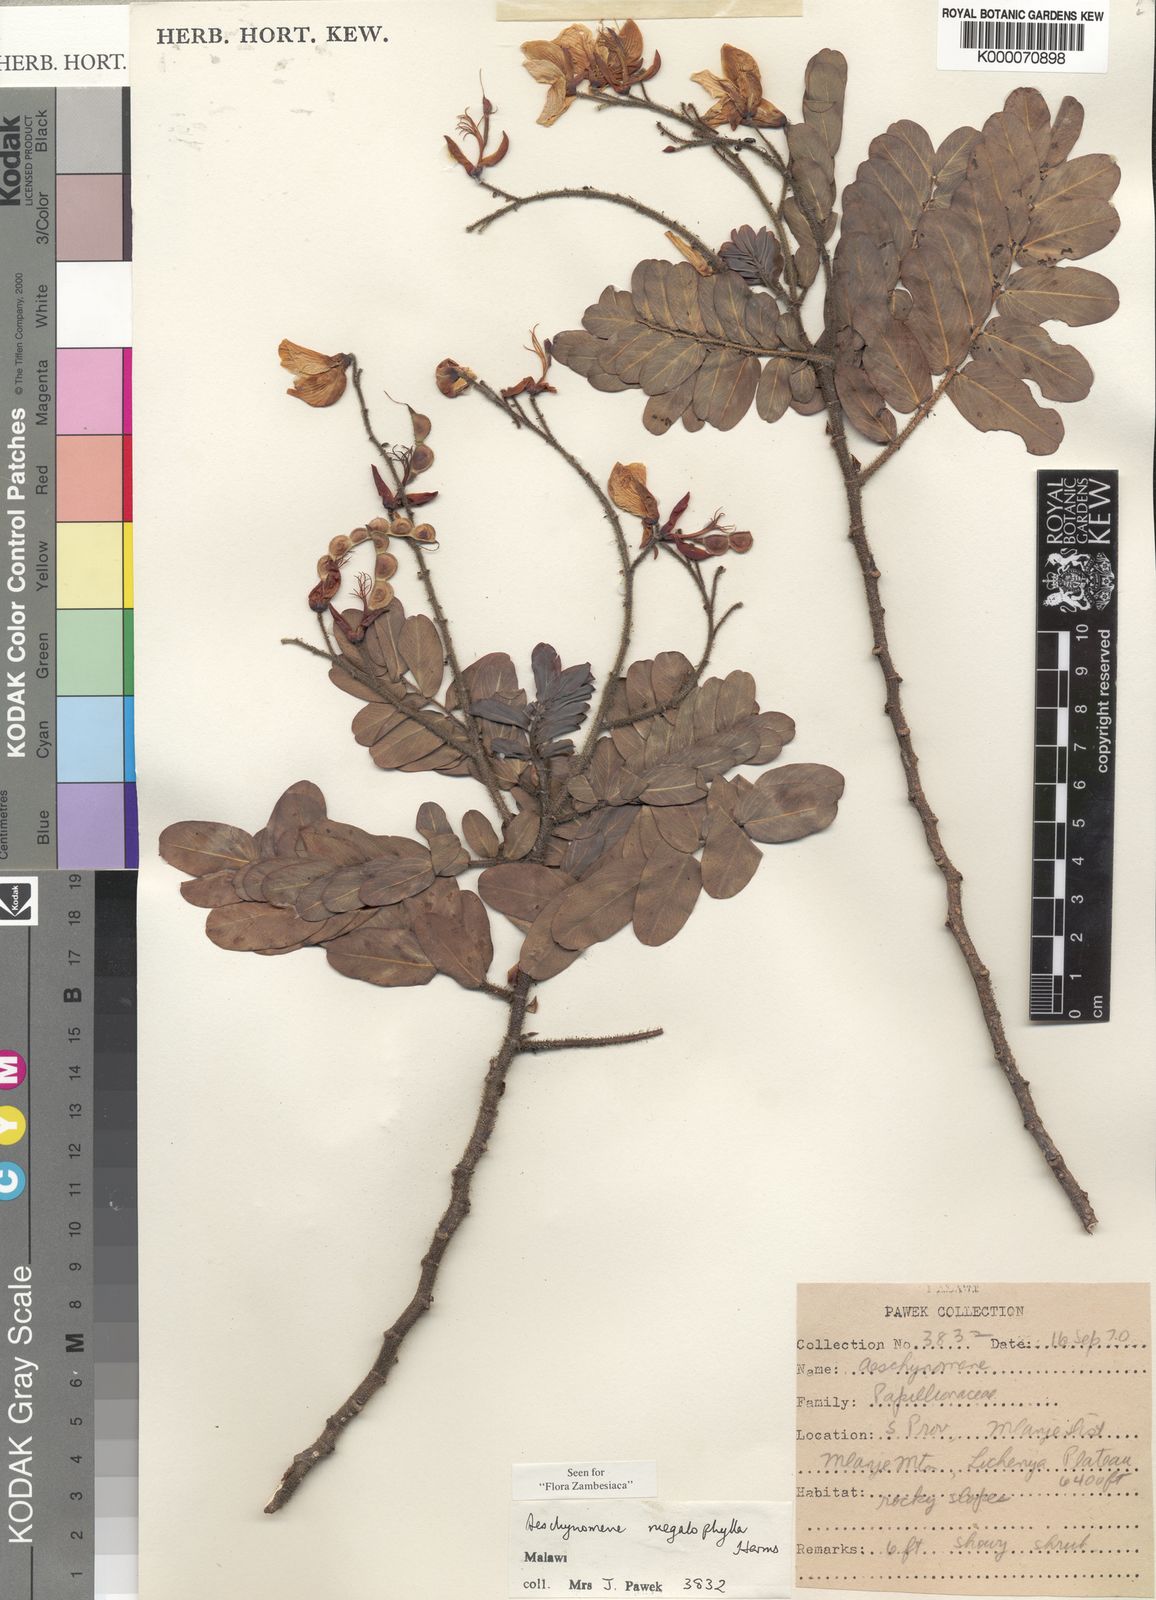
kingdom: Plantae
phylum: Tracheophyta
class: Magnoliopsida
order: Fabales
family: Fabaceae
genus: Aeschynomene
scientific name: Aeschynomene megalophylla
